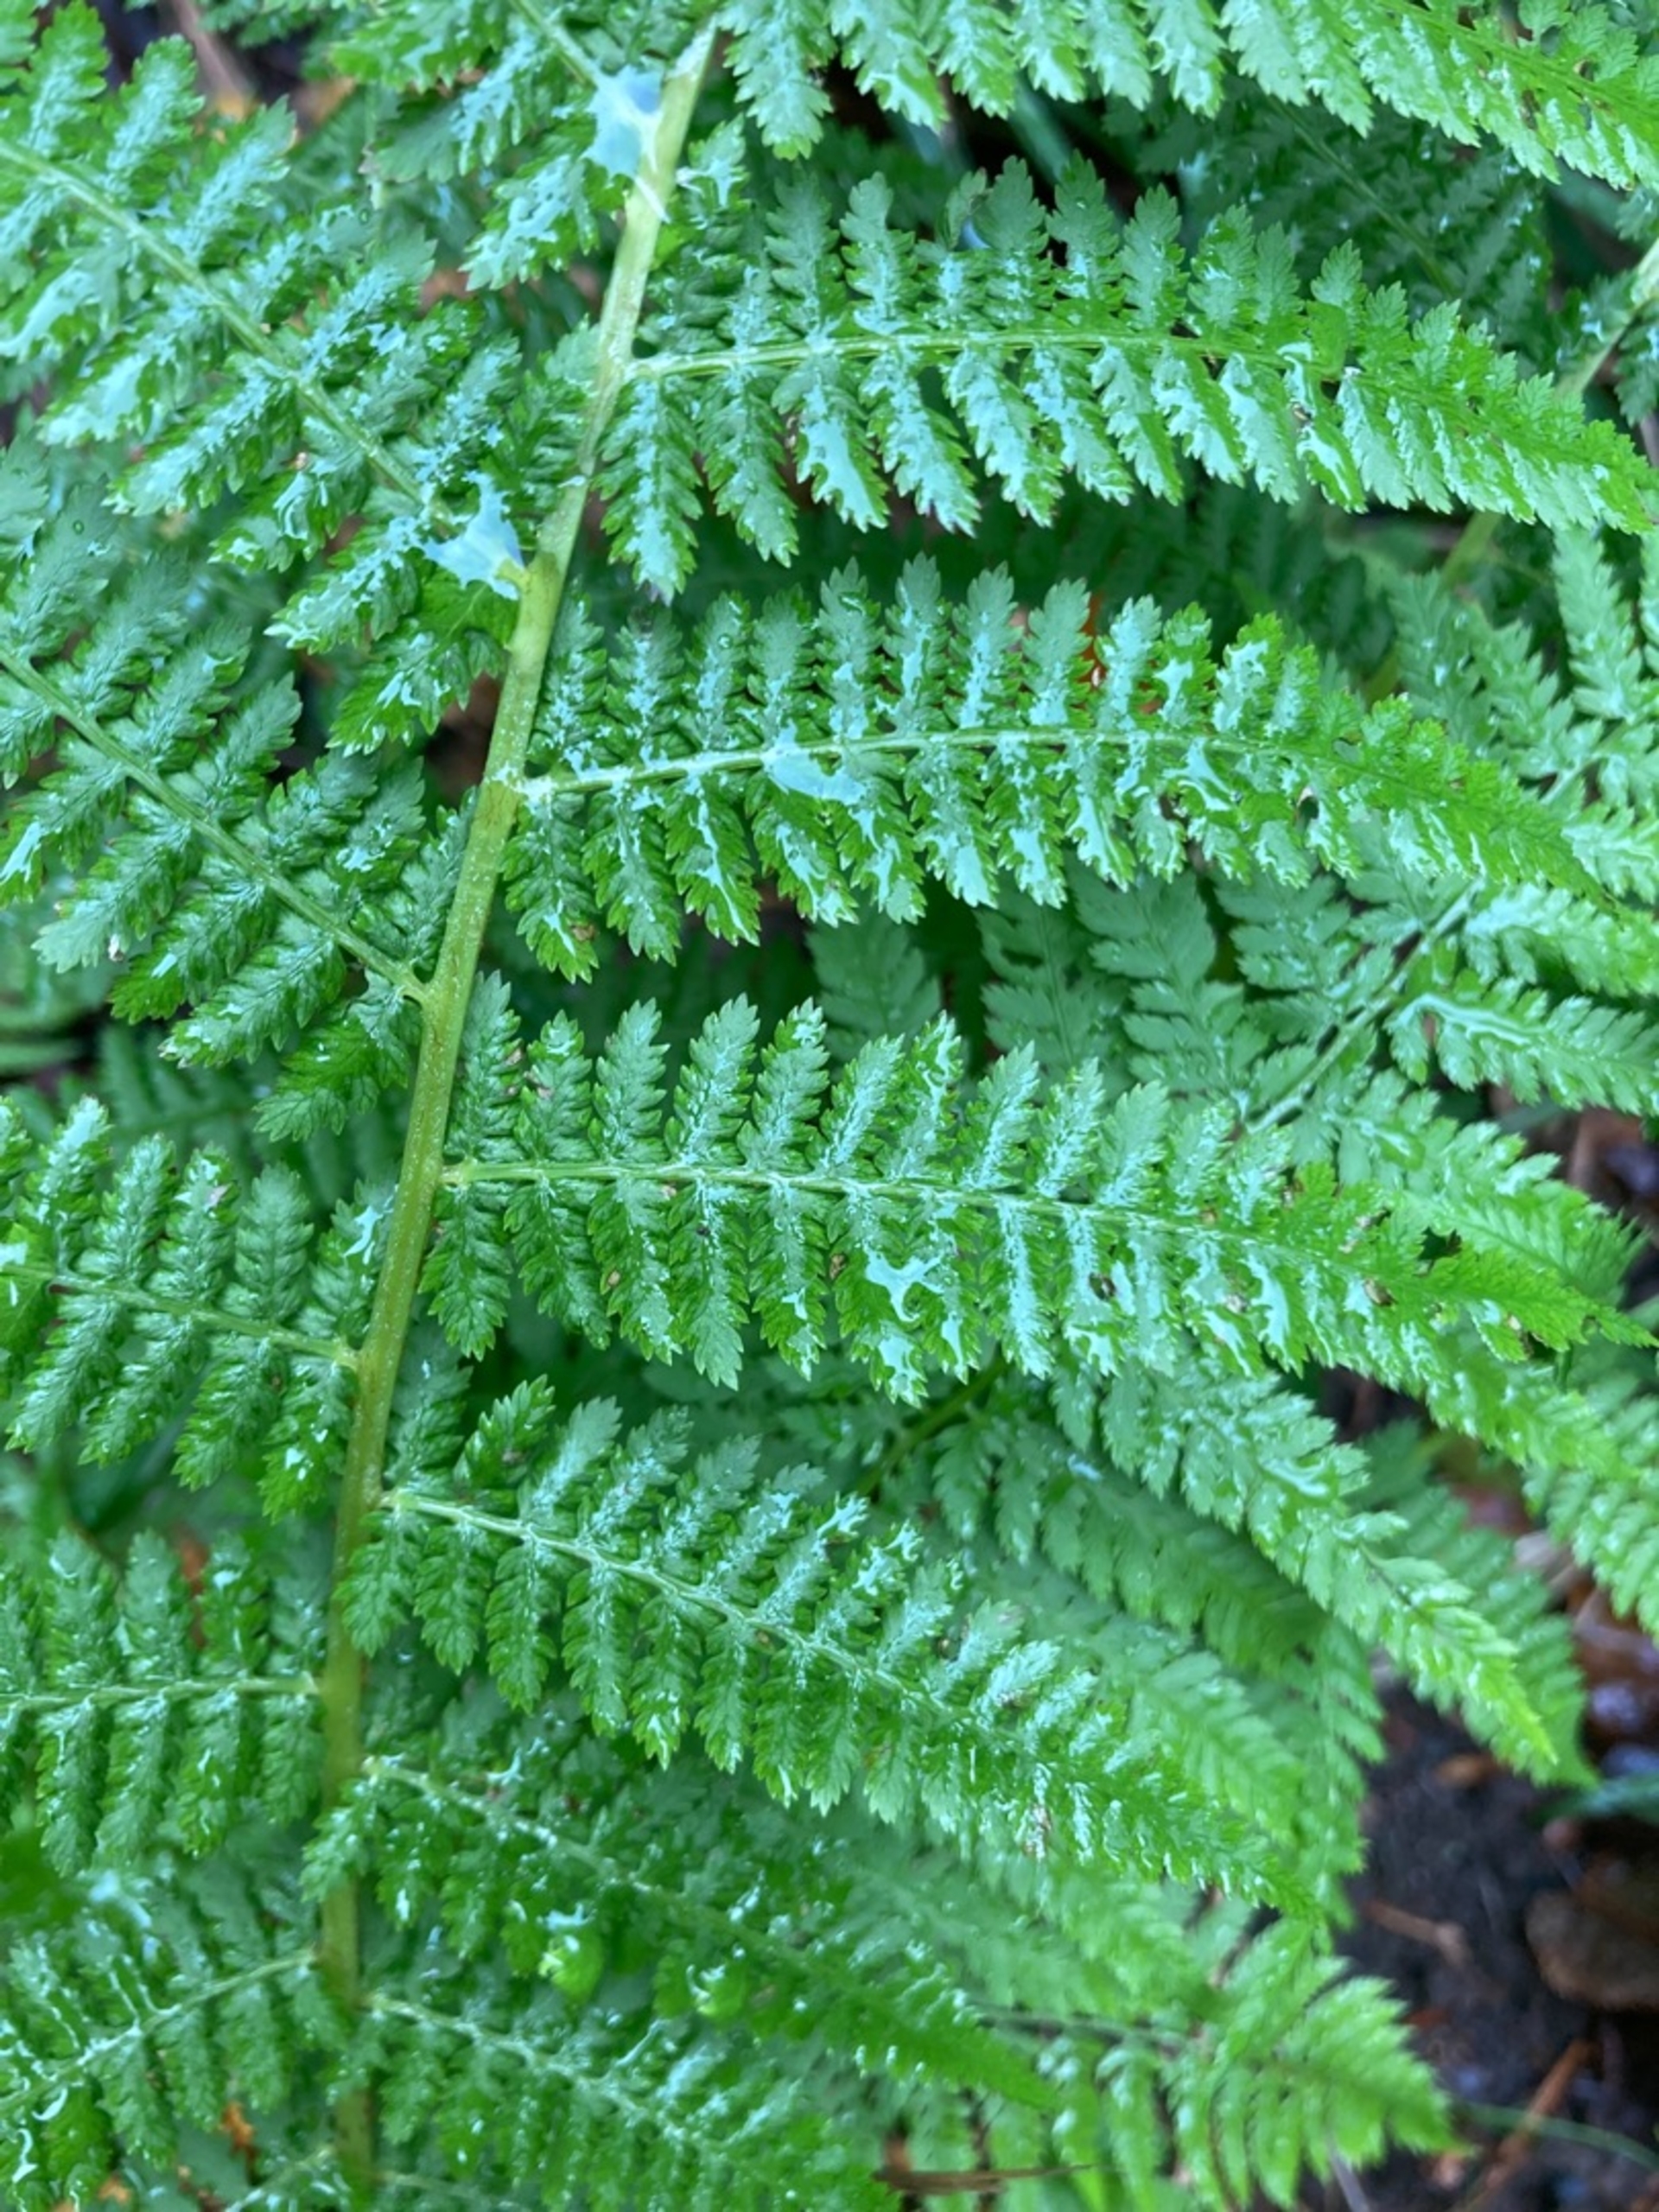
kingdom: Plantae
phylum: Tracheophyta
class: Polypodiopsida
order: Polypodiales
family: Athyriaceae
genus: Athyrium
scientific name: Athyrium filix-femina
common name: Fjerbregne
